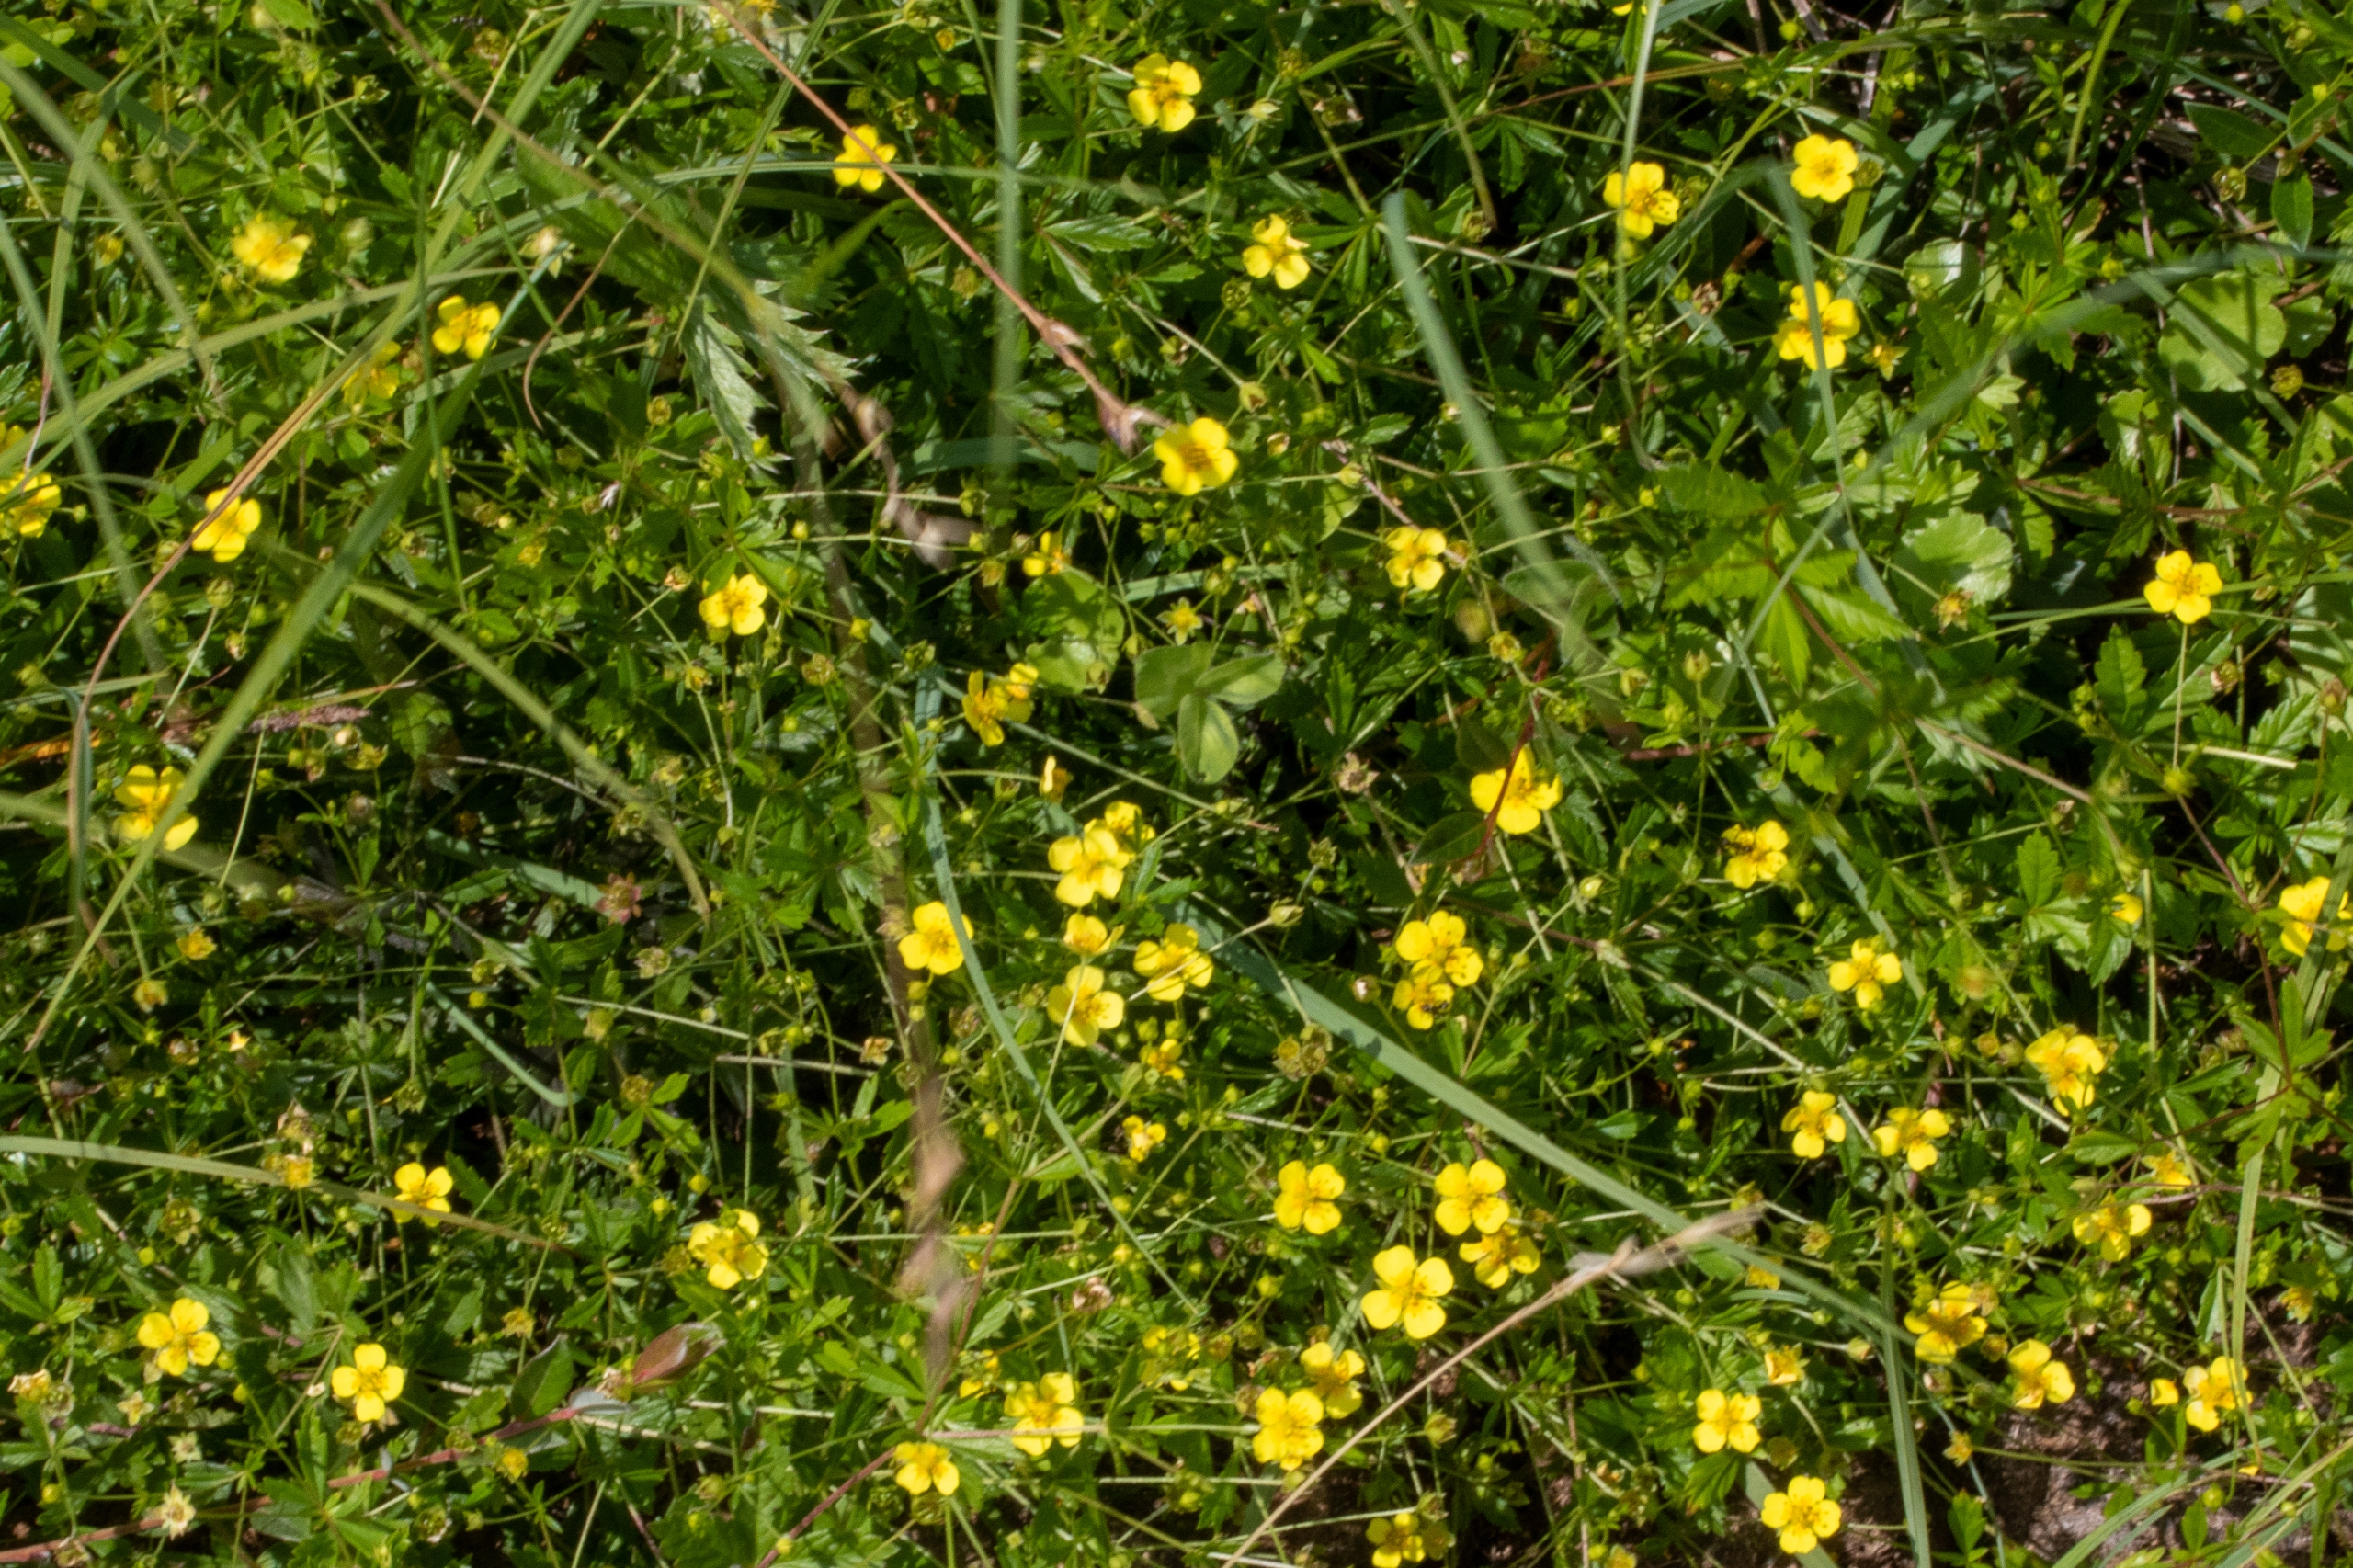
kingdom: Plantae
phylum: Tracheophyta
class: Magnoliopsida
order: Rosales
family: Rosaceae
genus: Potentilla
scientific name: Potentilla erecta
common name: Tormentil
